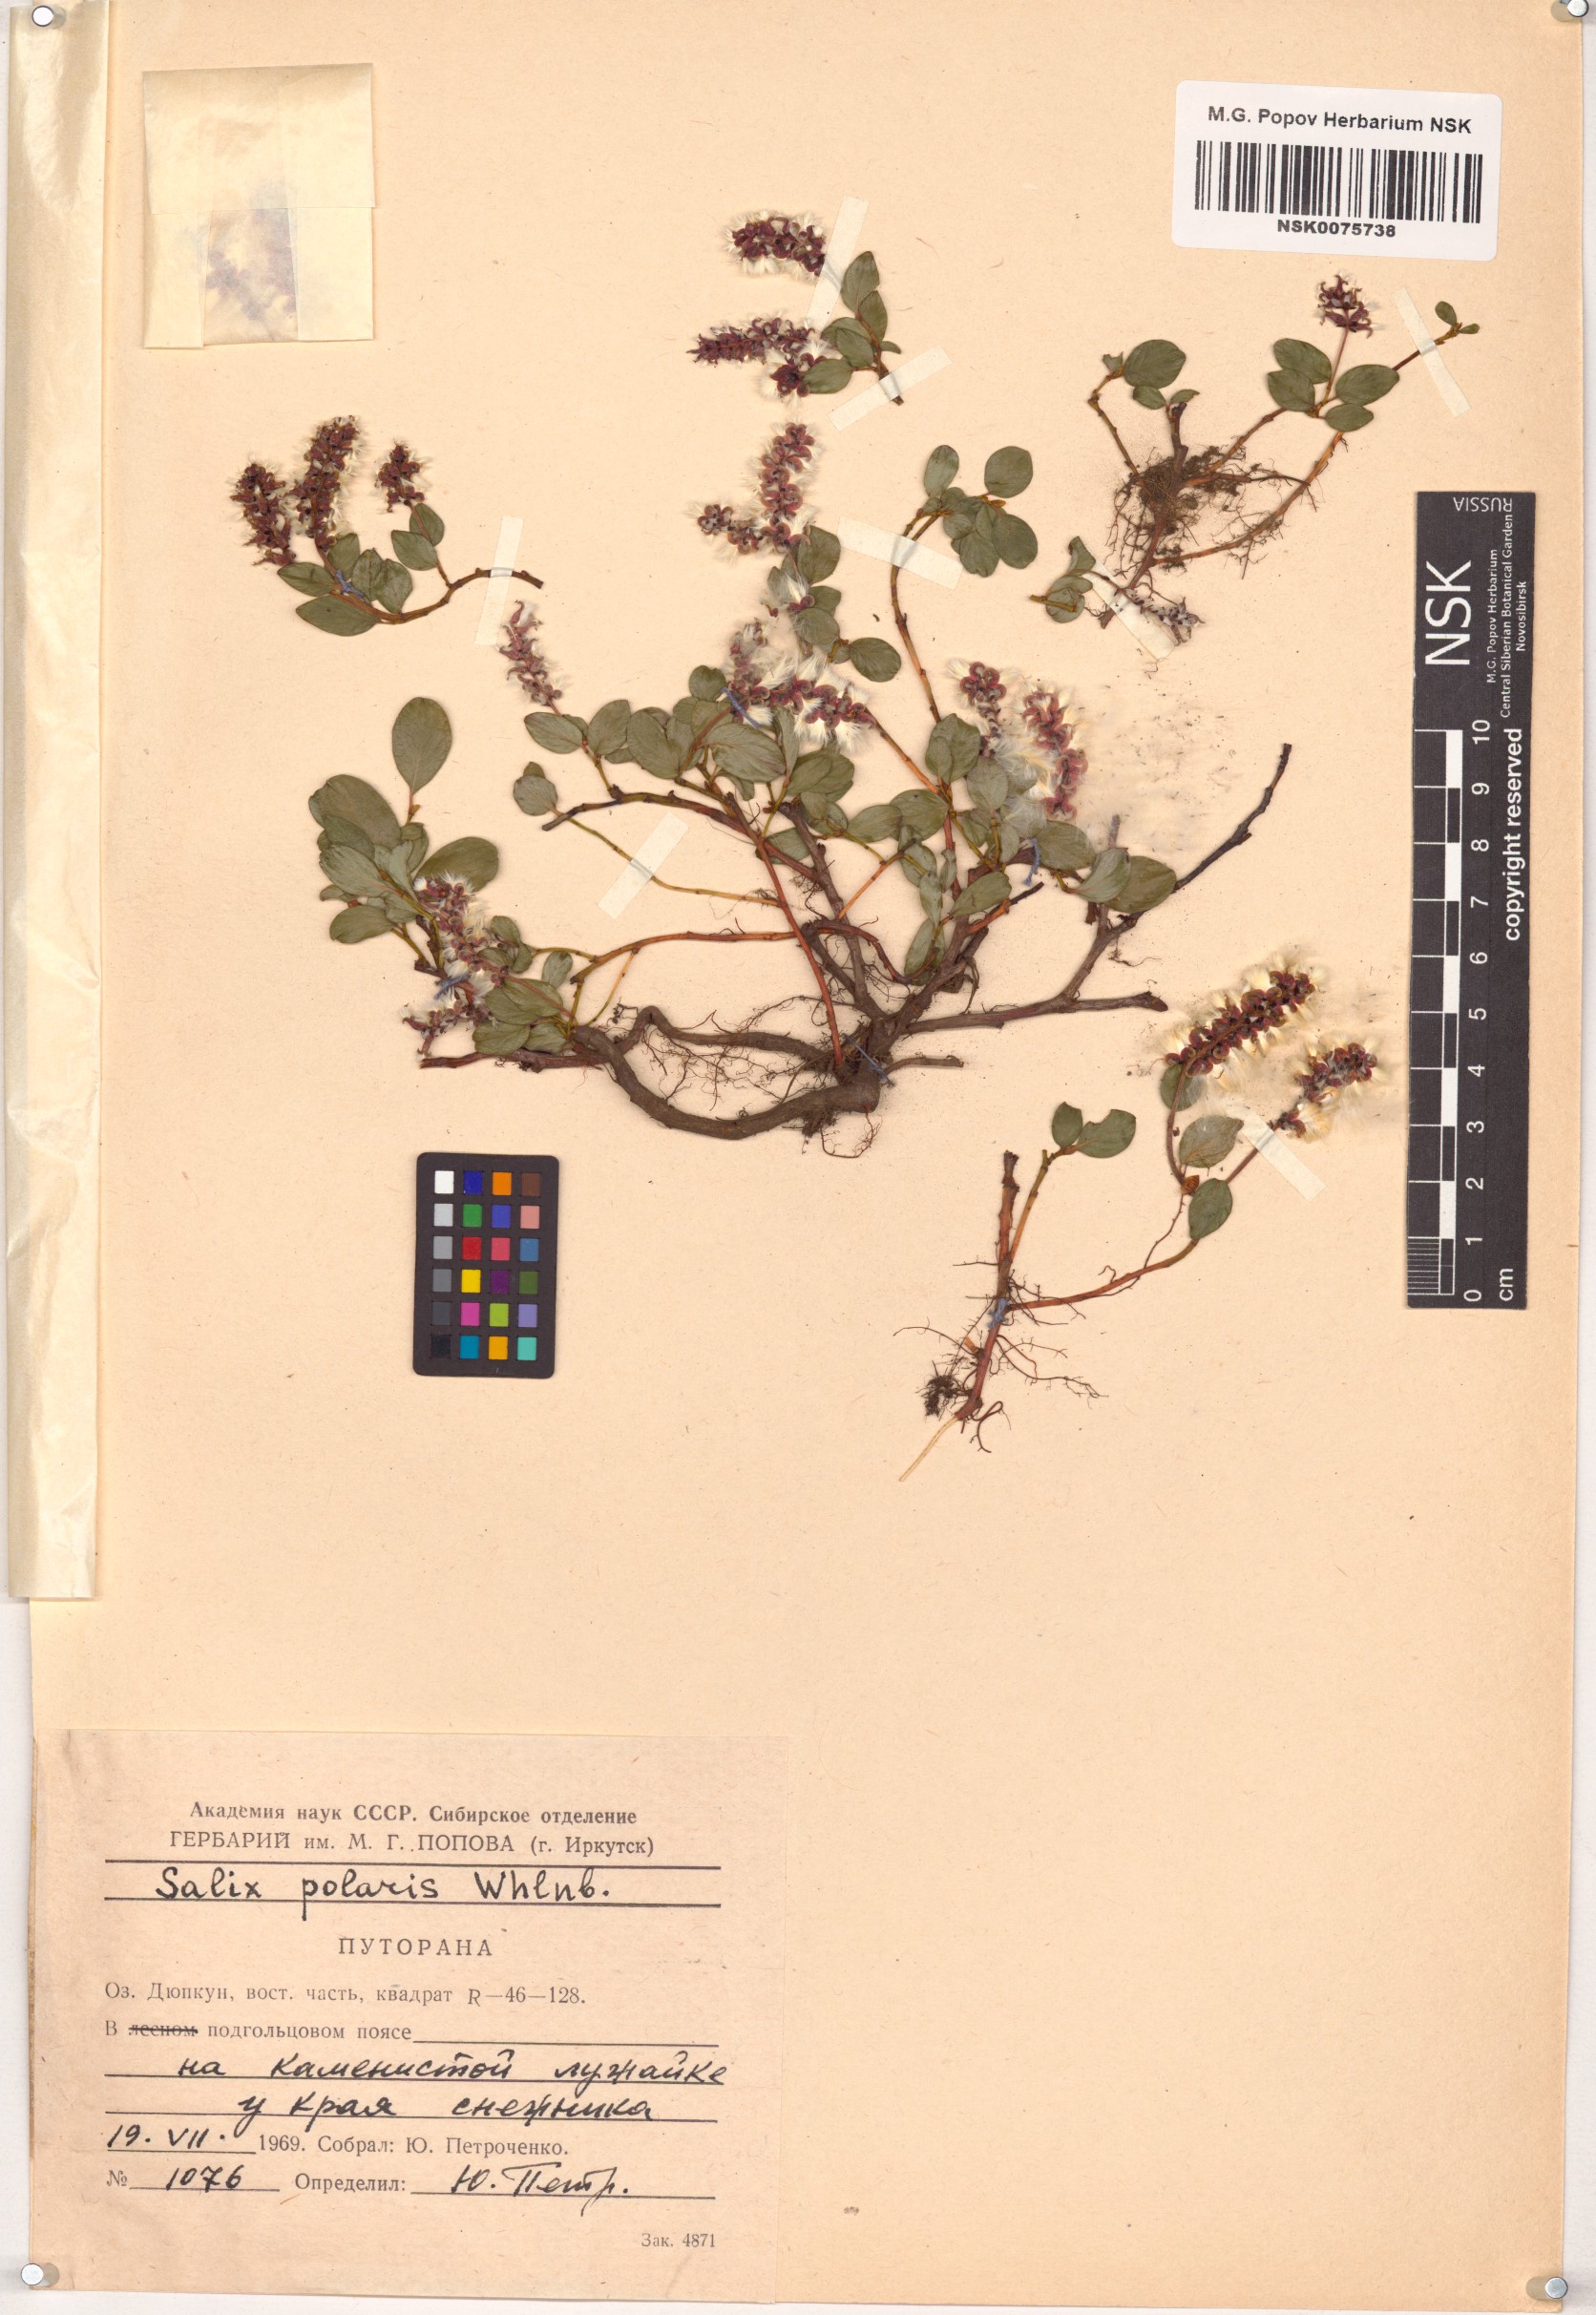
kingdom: Plantae
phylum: Tracheophyta
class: Magnoliopsida
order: Malpighiales
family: Salicaceae
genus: Salix
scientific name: Salix polaris
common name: Polar willow
